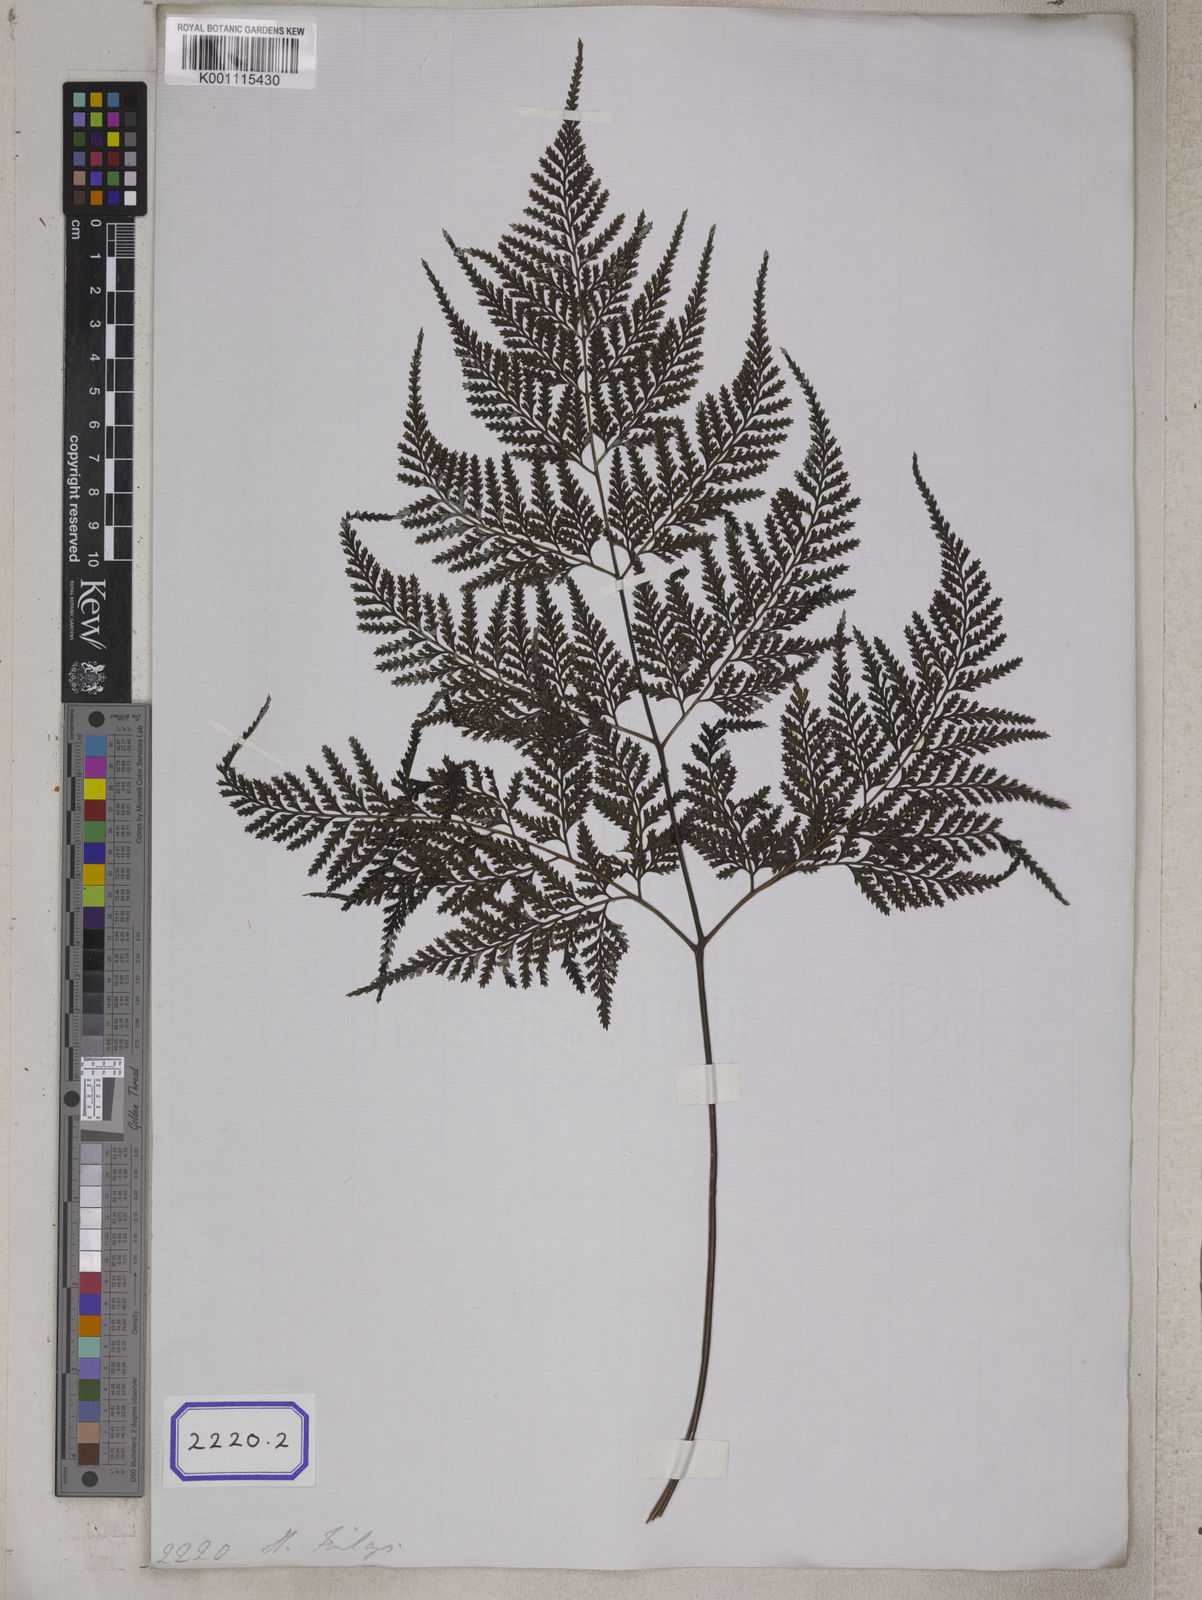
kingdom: Plantae
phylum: Tracheophyta
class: Polypodiopsida
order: Polypodiales
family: Davalliaceae
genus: Davallia
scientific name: Davallia denticulata
